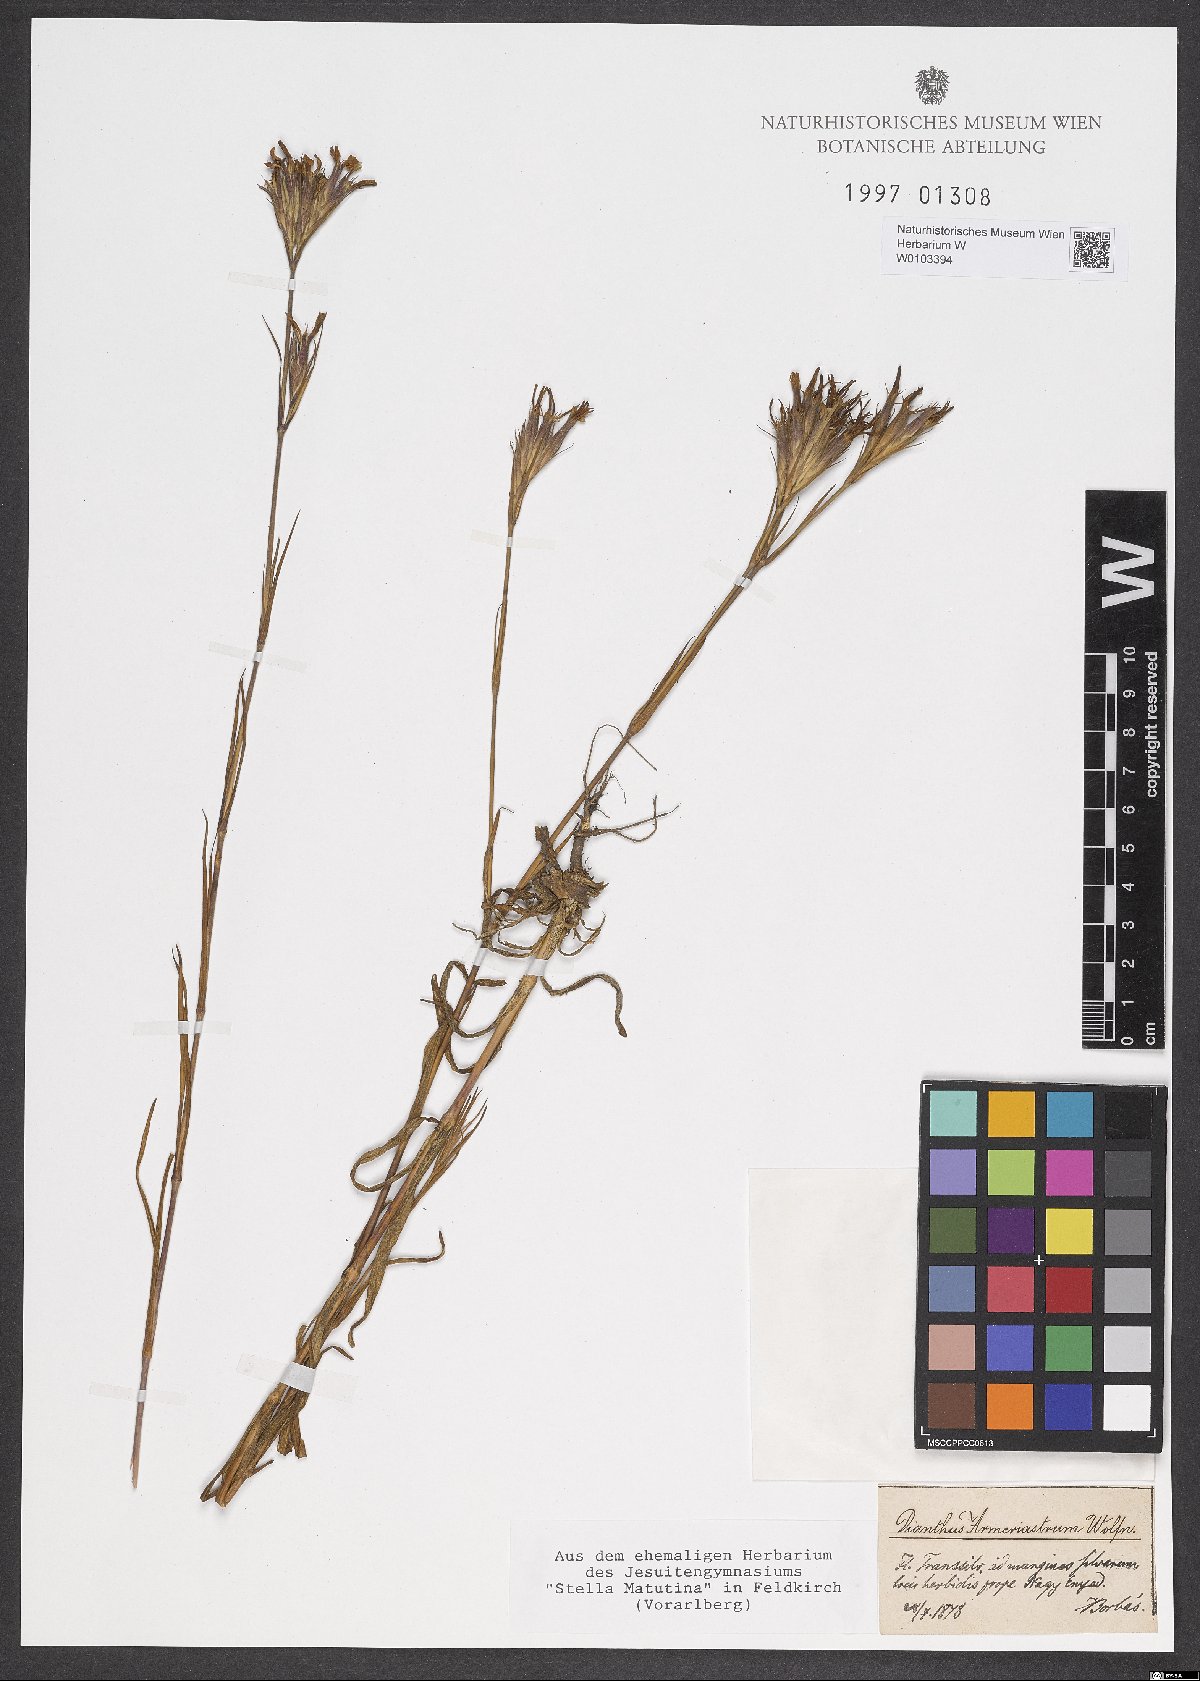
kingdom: Plantae
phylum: Tracheophyta
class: Magnoliopsida
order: Caryophyllales
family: Caryophyllaceae
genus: Dianthus
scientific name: Dianthus corymbosus
